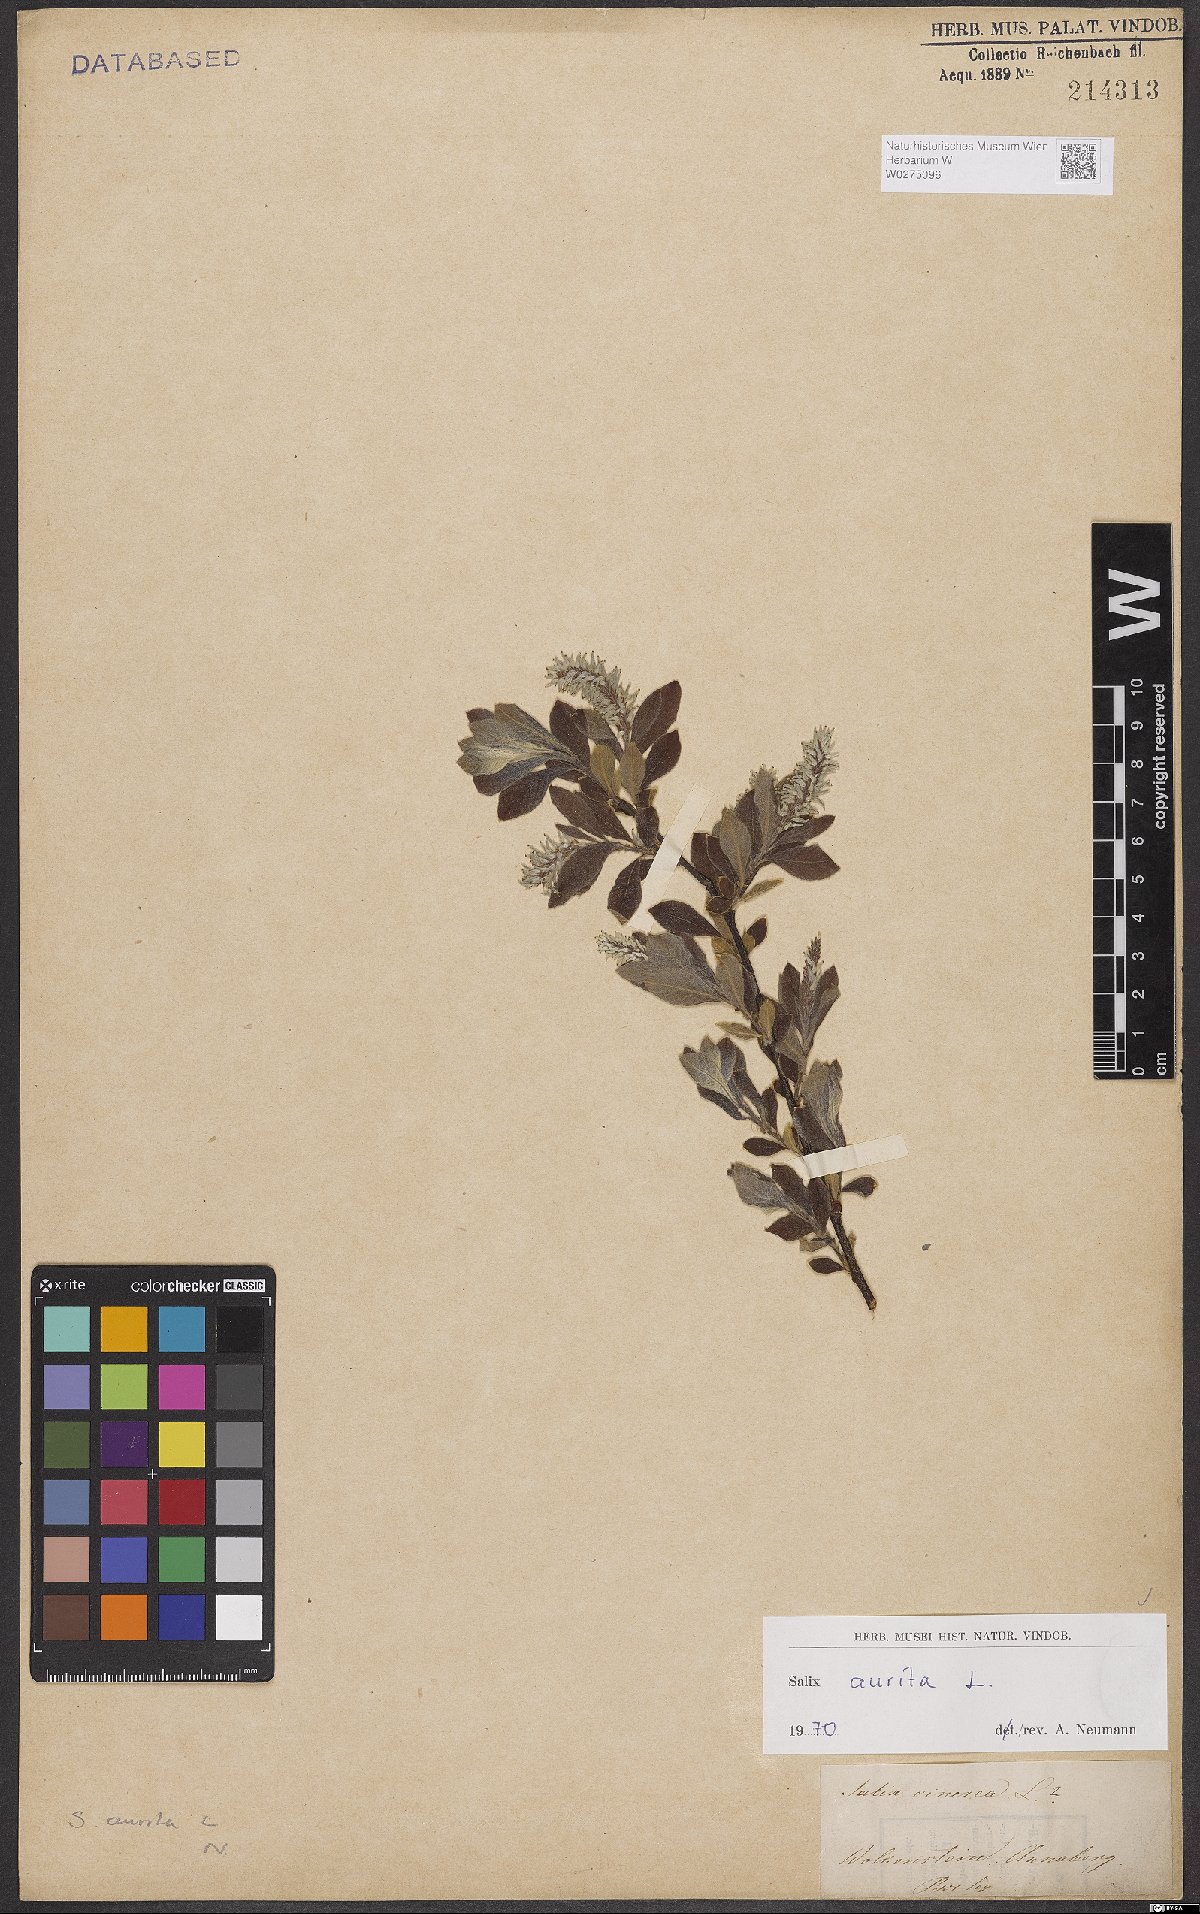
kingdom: Plantae
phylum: Tracheophyta
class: Magnoliopsida
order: Malpighiales
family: Salicaceae
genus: Salix
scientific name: Salix aurita
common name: Eared willow
